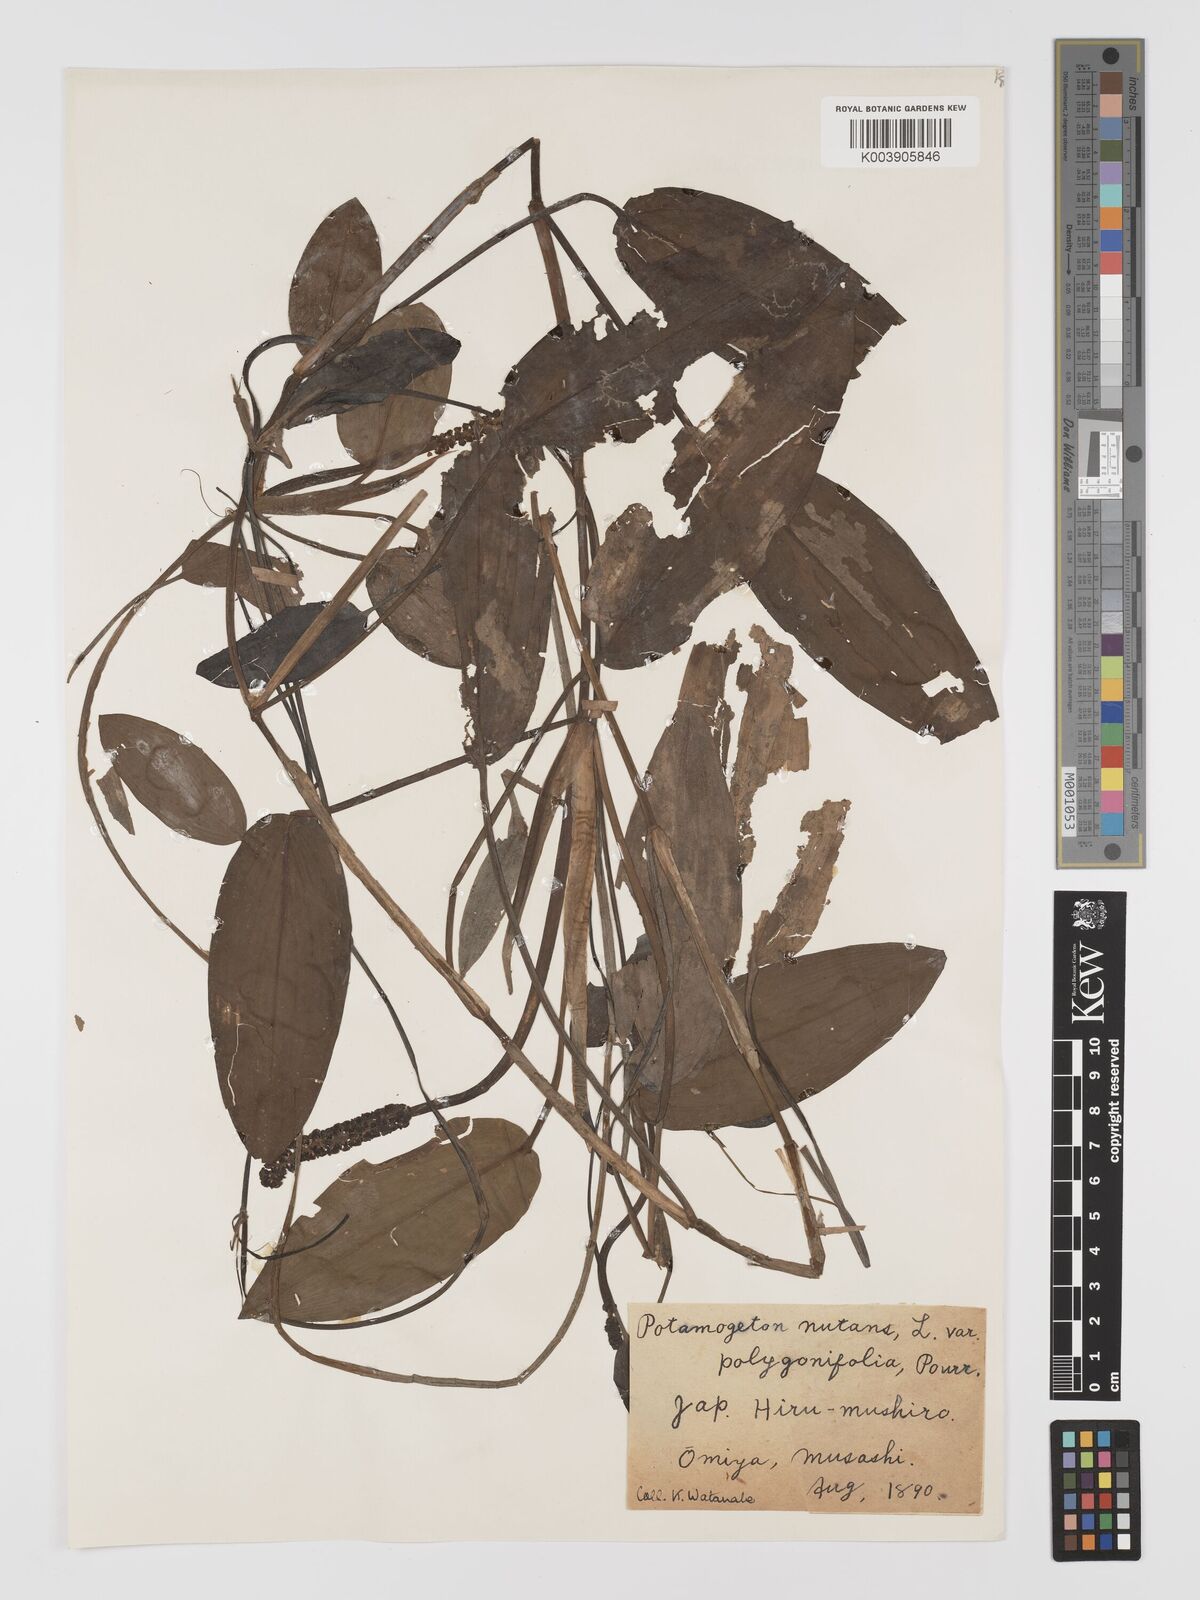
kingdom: Plantae
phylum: Tracheophyta
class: Liliopsida
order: Alismatales
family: Potamogetonaceae
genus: Potamogeton
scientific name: Potamogeton natans
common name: Broad-leaved pondweed
